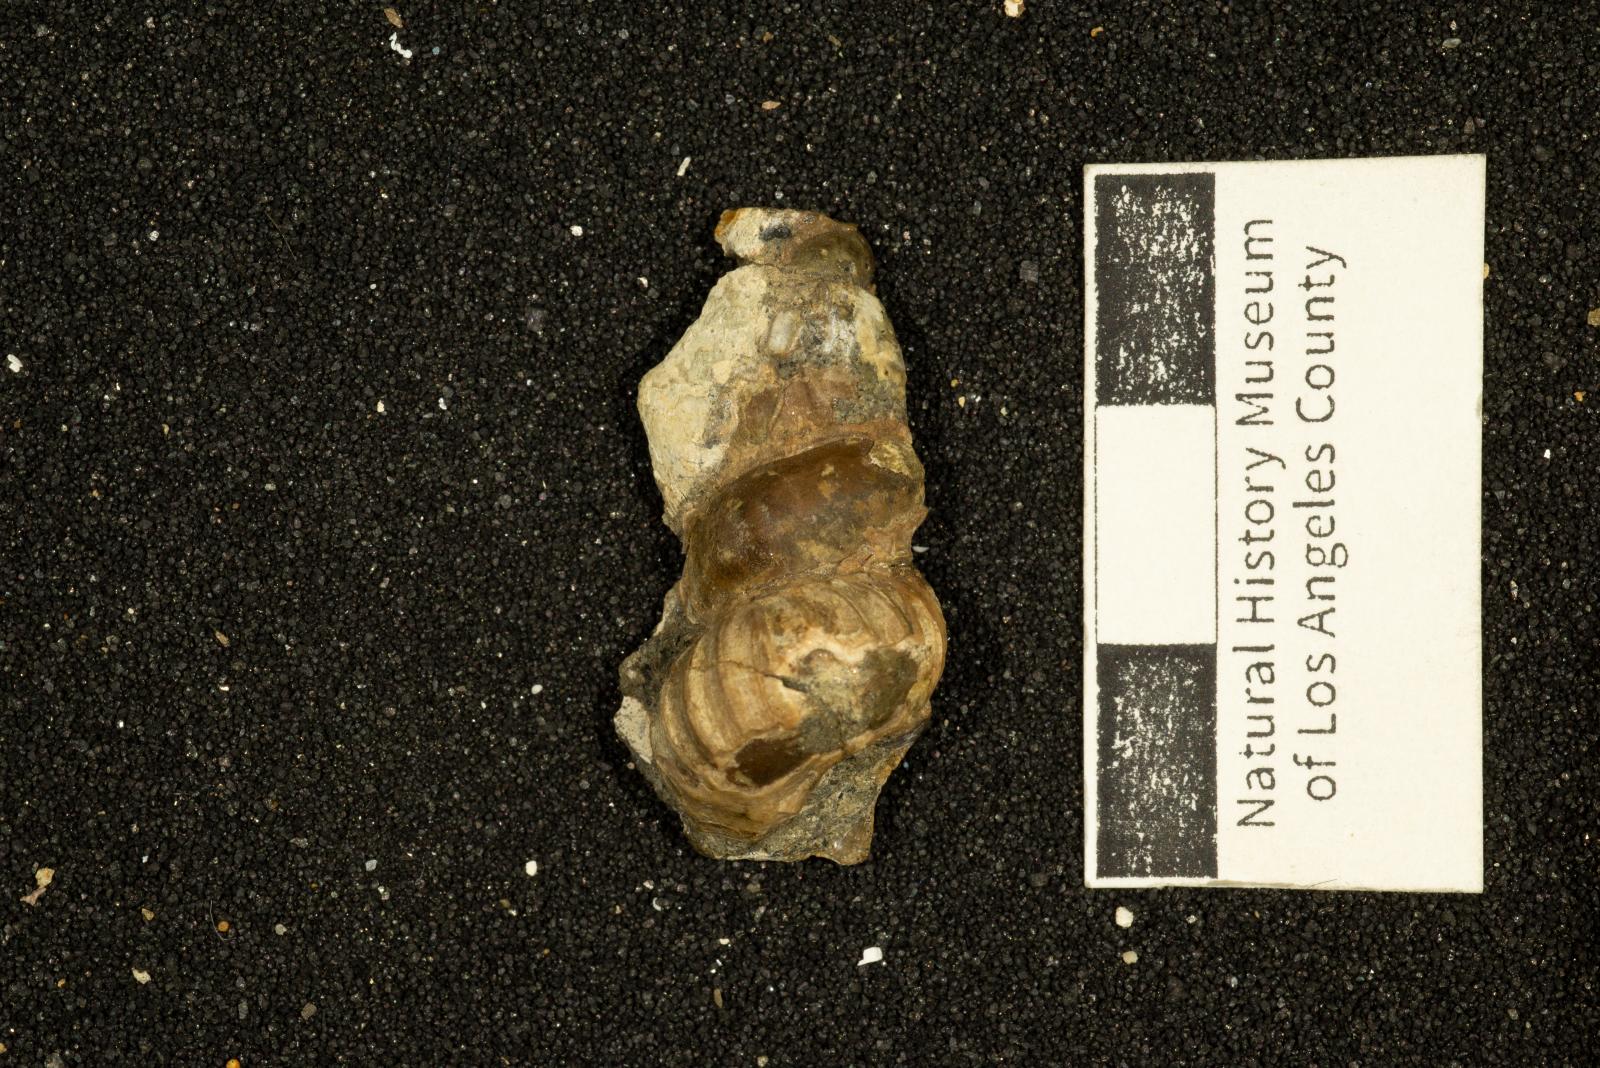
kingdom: Animalia
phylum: Mollusca
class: Gastropoda
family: Epitoniidae
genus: Opalia
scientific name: Opalia cavea
